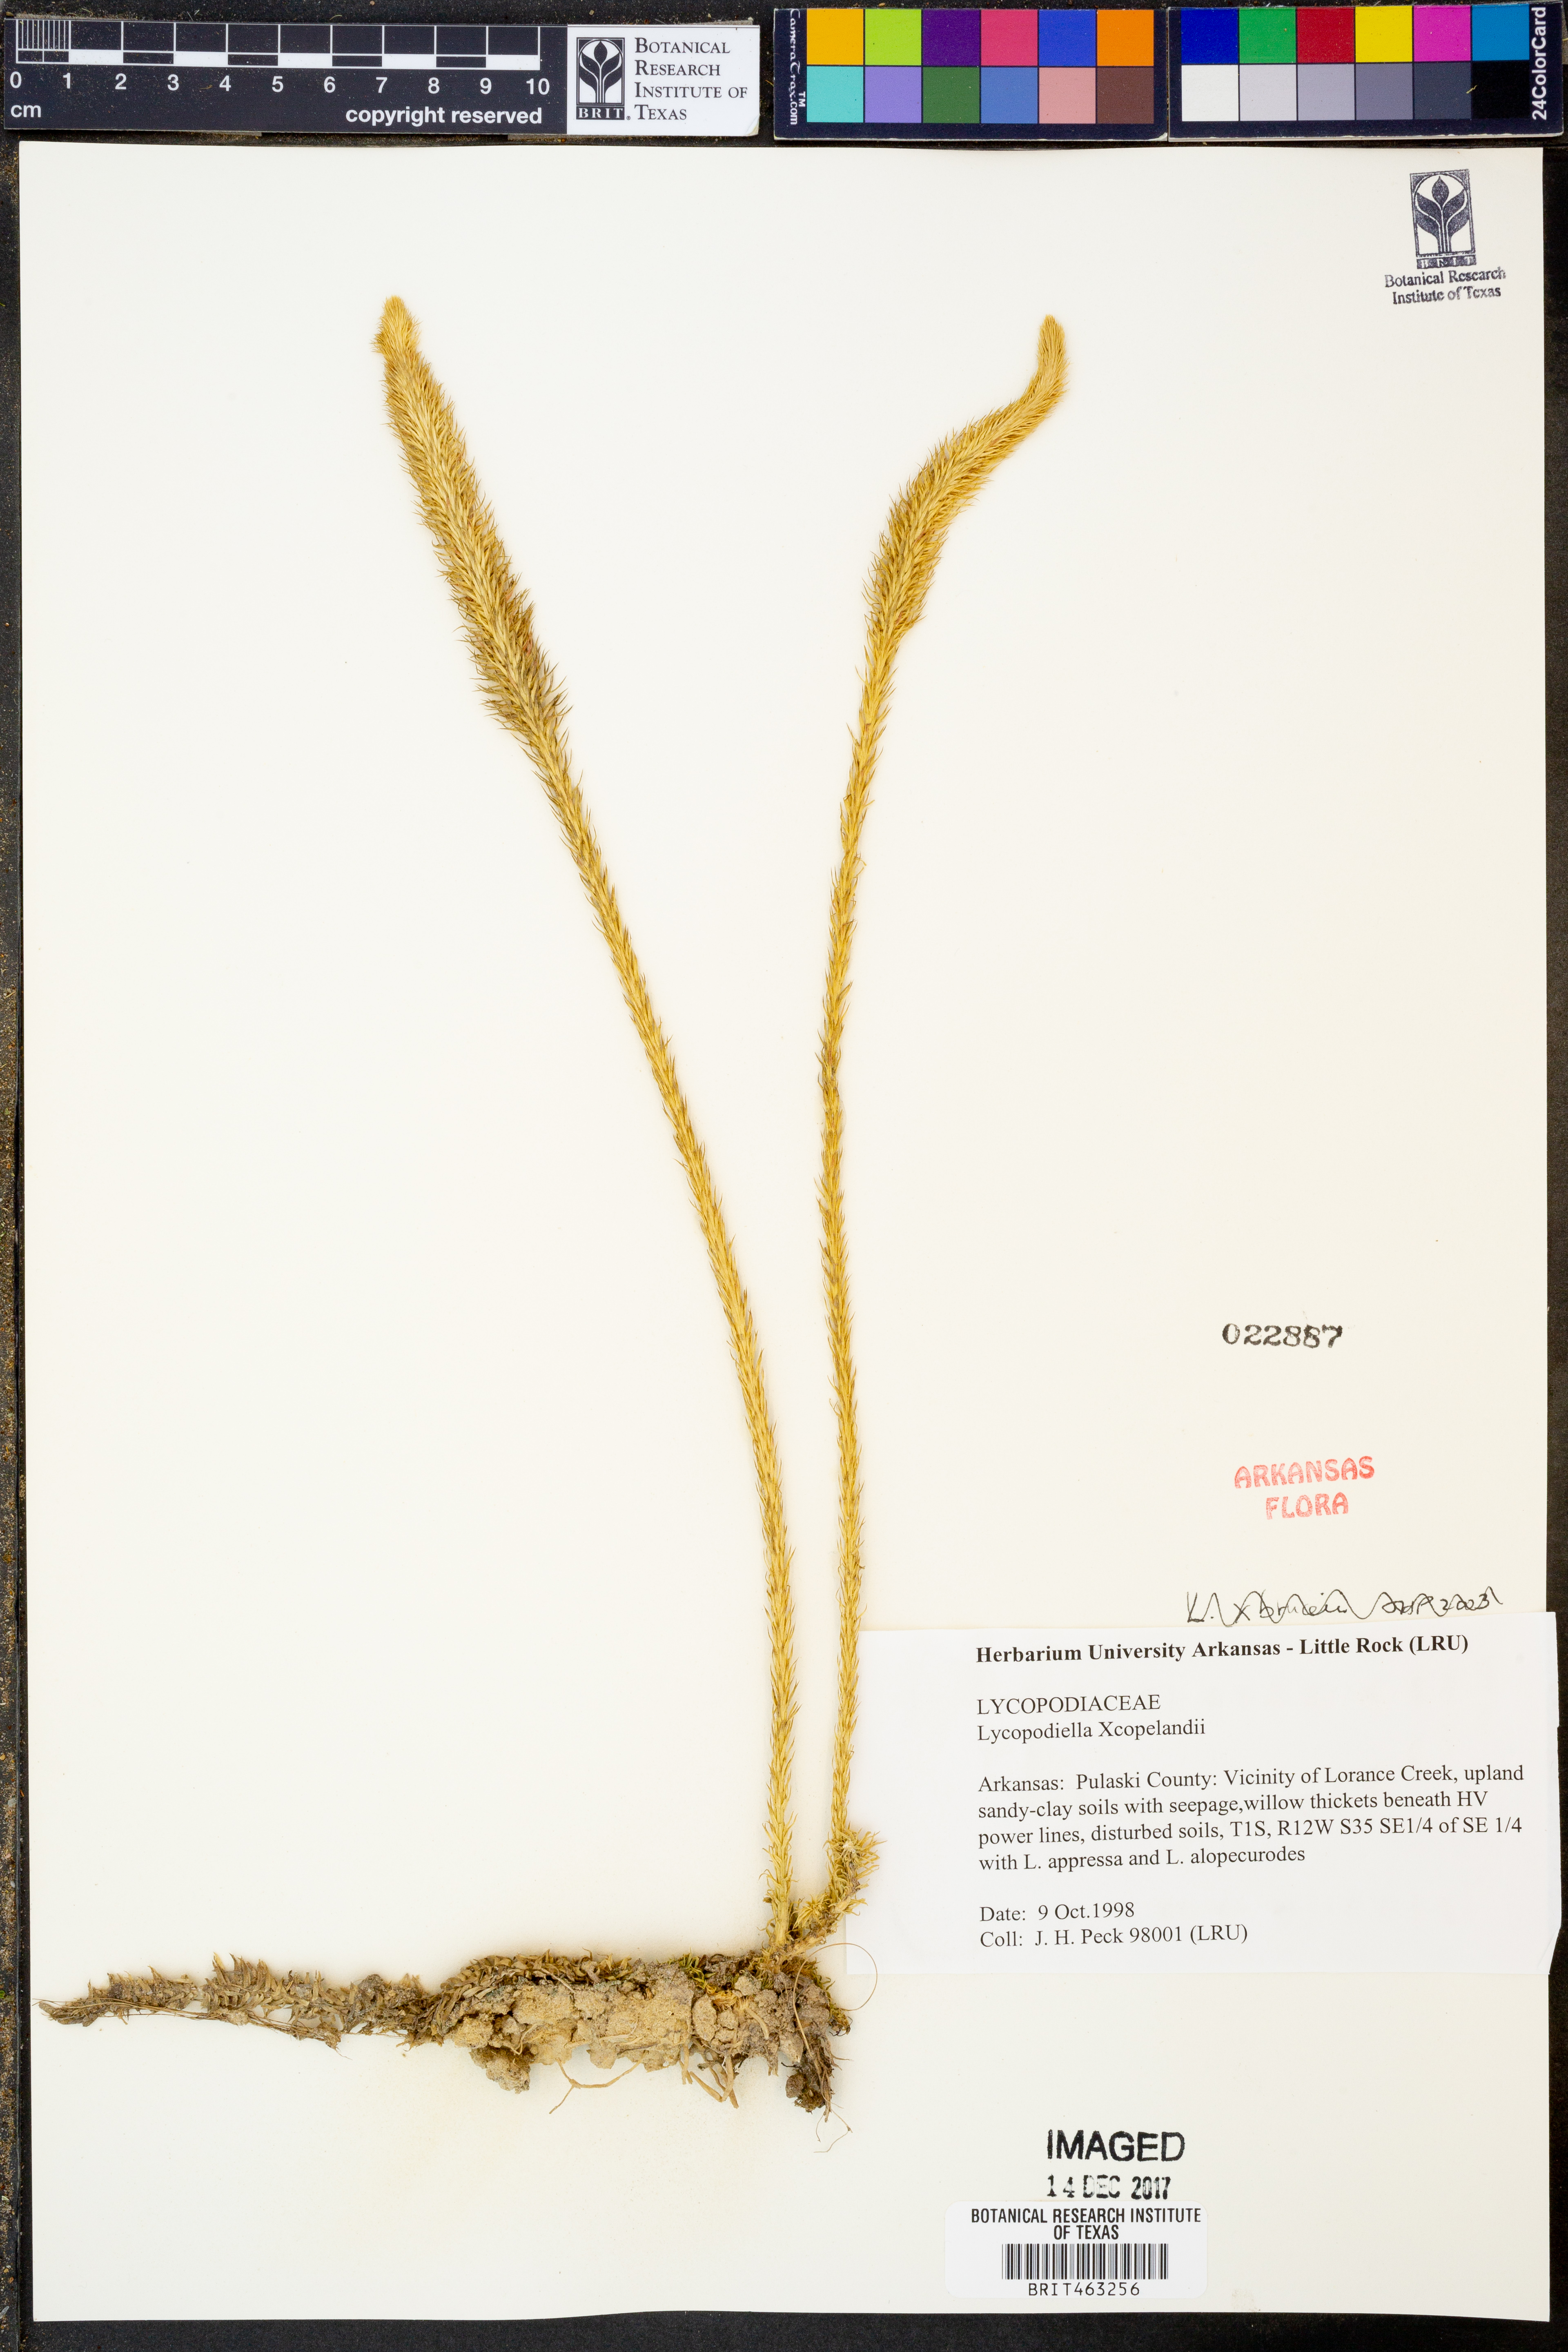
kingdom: Plantae
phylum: Tracheophyta
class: Lycopodiopsida
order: Lycopodiales
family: Lycopodiaceae
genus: Lycopodiella
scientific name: Lycopodiella
